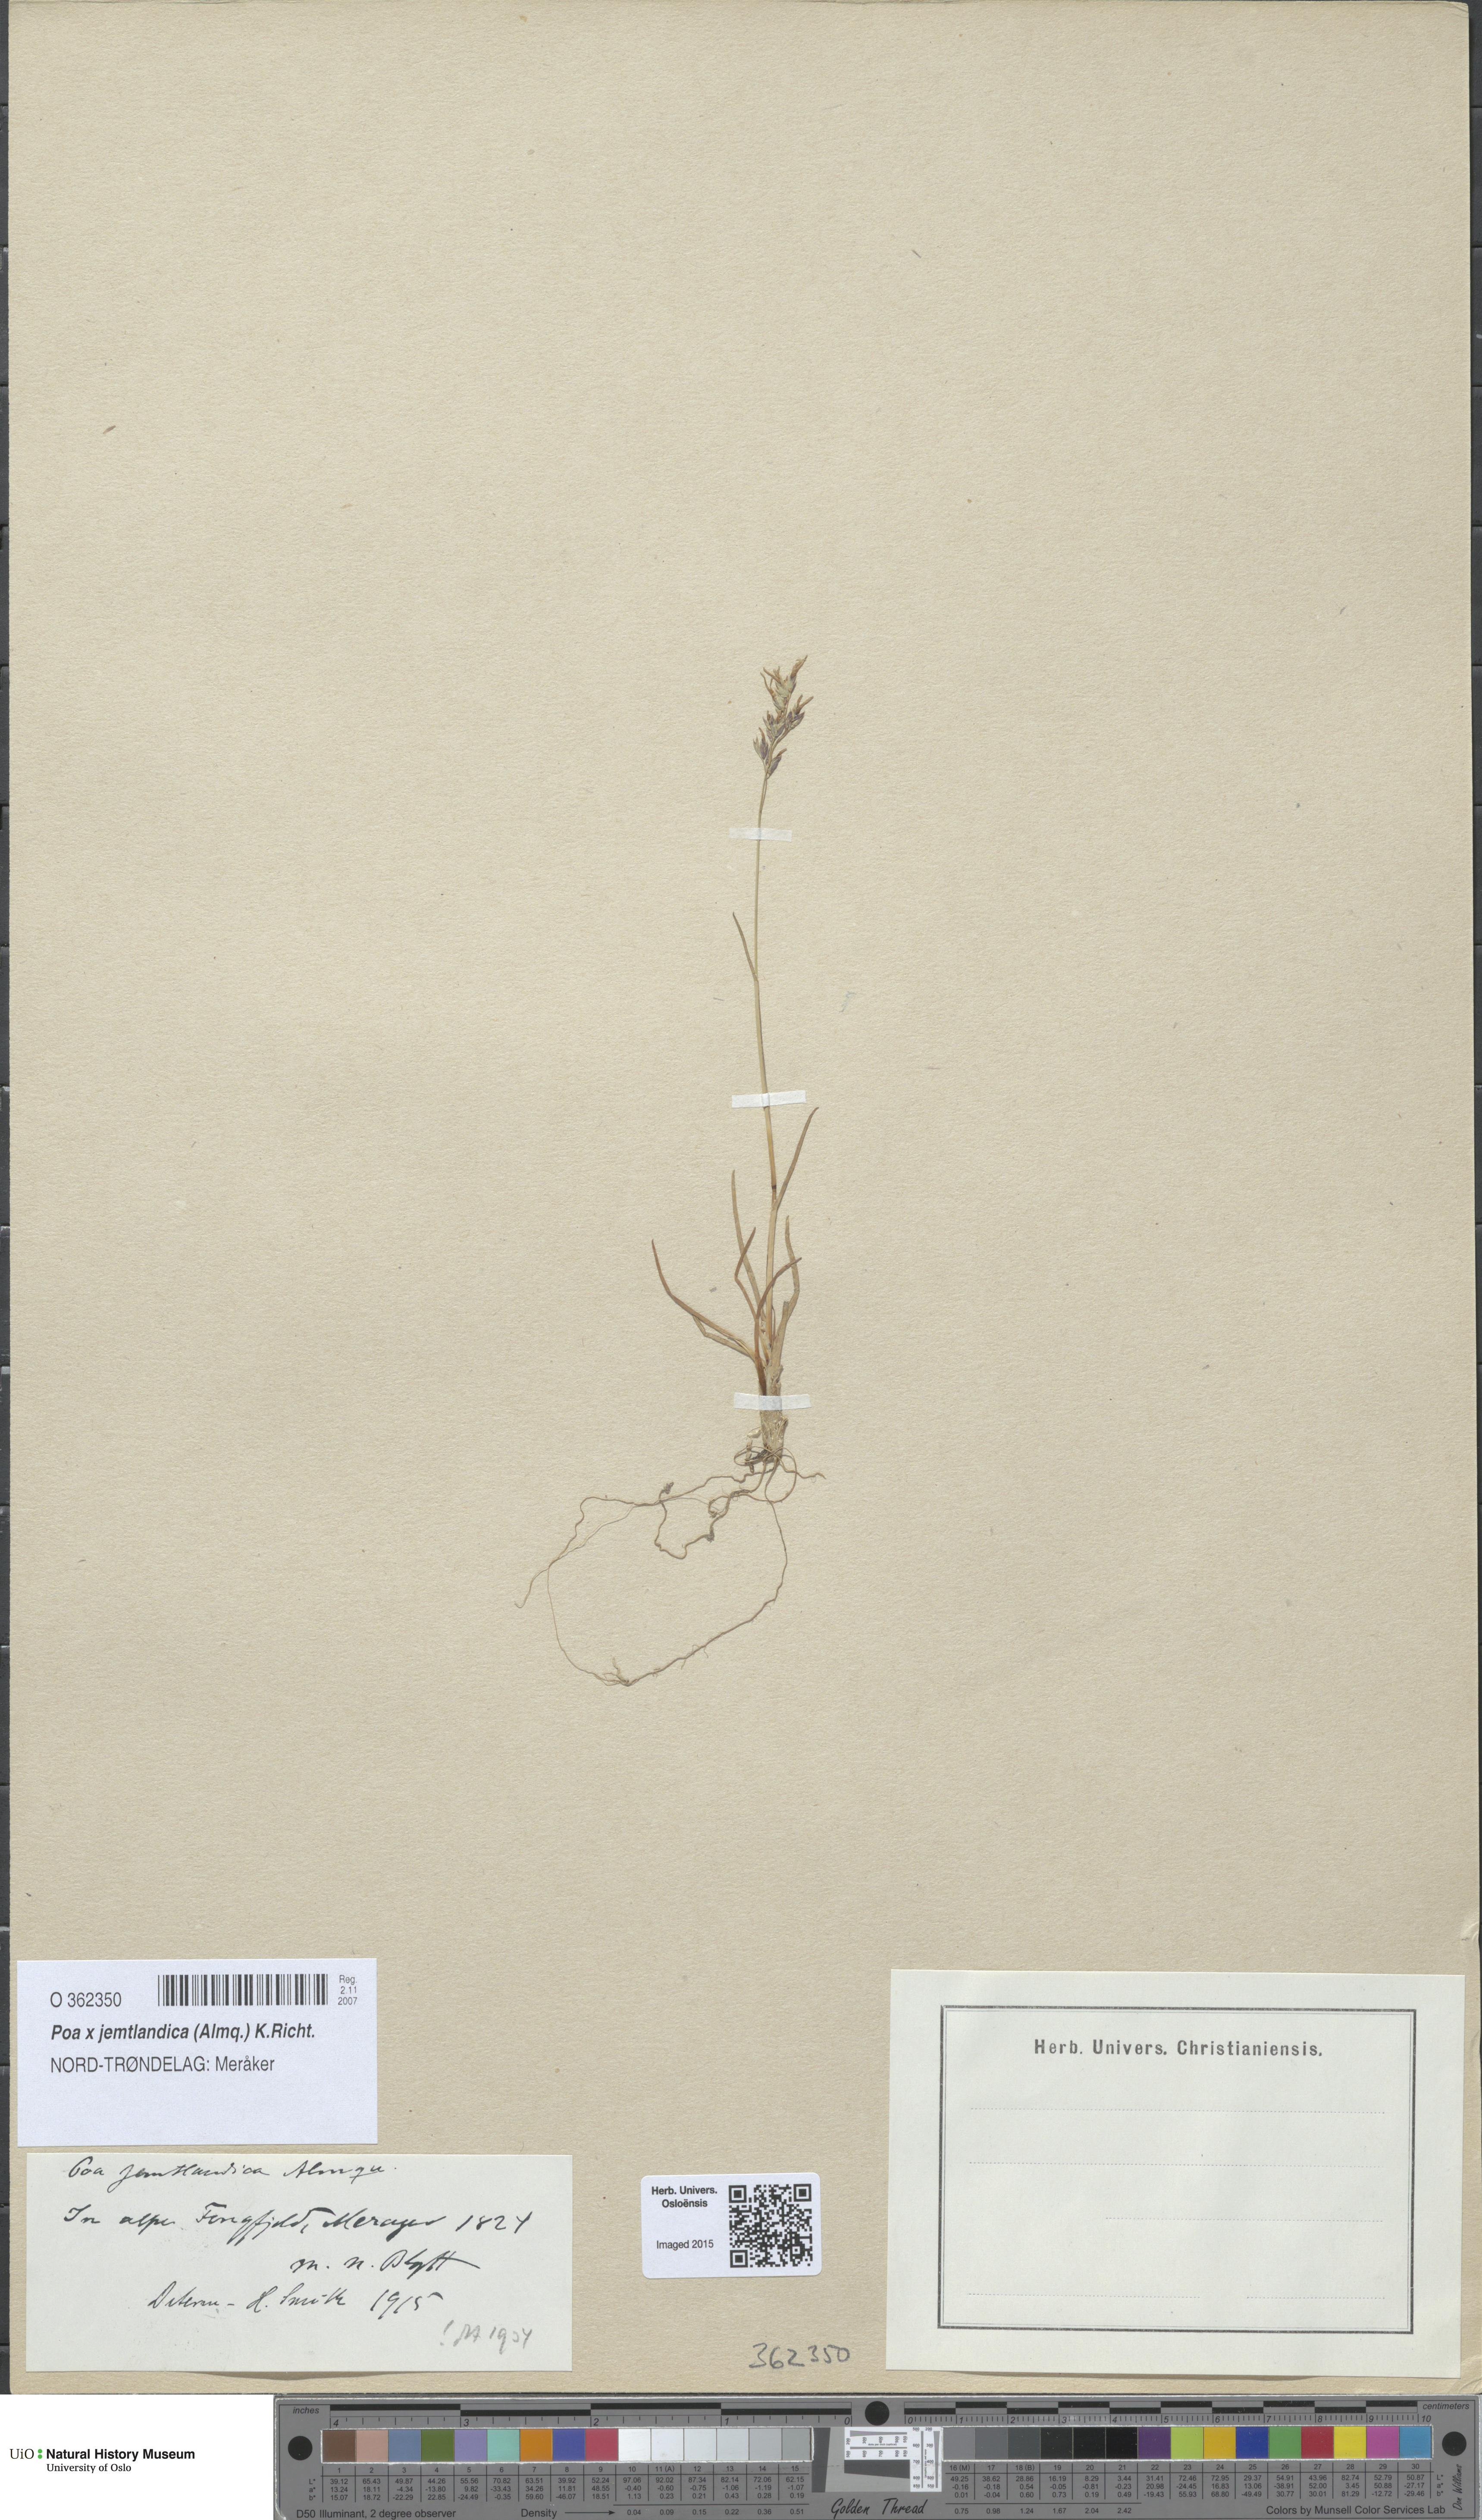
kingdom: Plantae
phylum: Tracheophyta
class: Liliopsida
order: Poales
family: Poaceae
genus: Poa
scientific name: Poa jemtlandica
